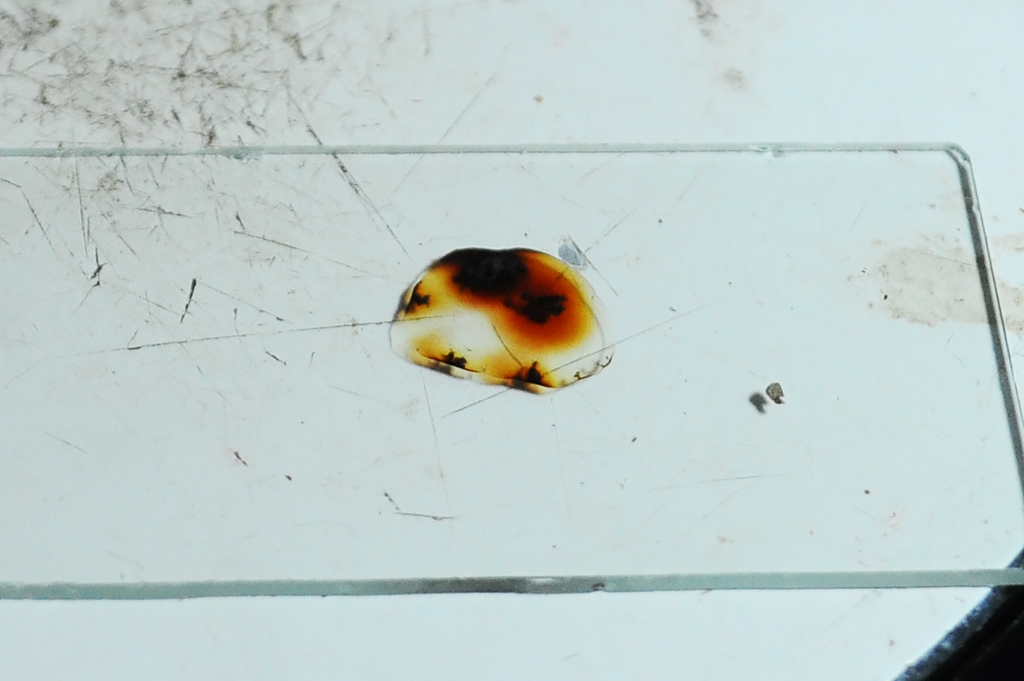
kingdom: Fungi
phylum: Ascomycota
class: Sordariomycetes
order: Xylariales
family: Hypoxylaceae
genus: Hypoxylon
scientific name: Hypoxylon petriniae
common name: nedsænket kulbær
